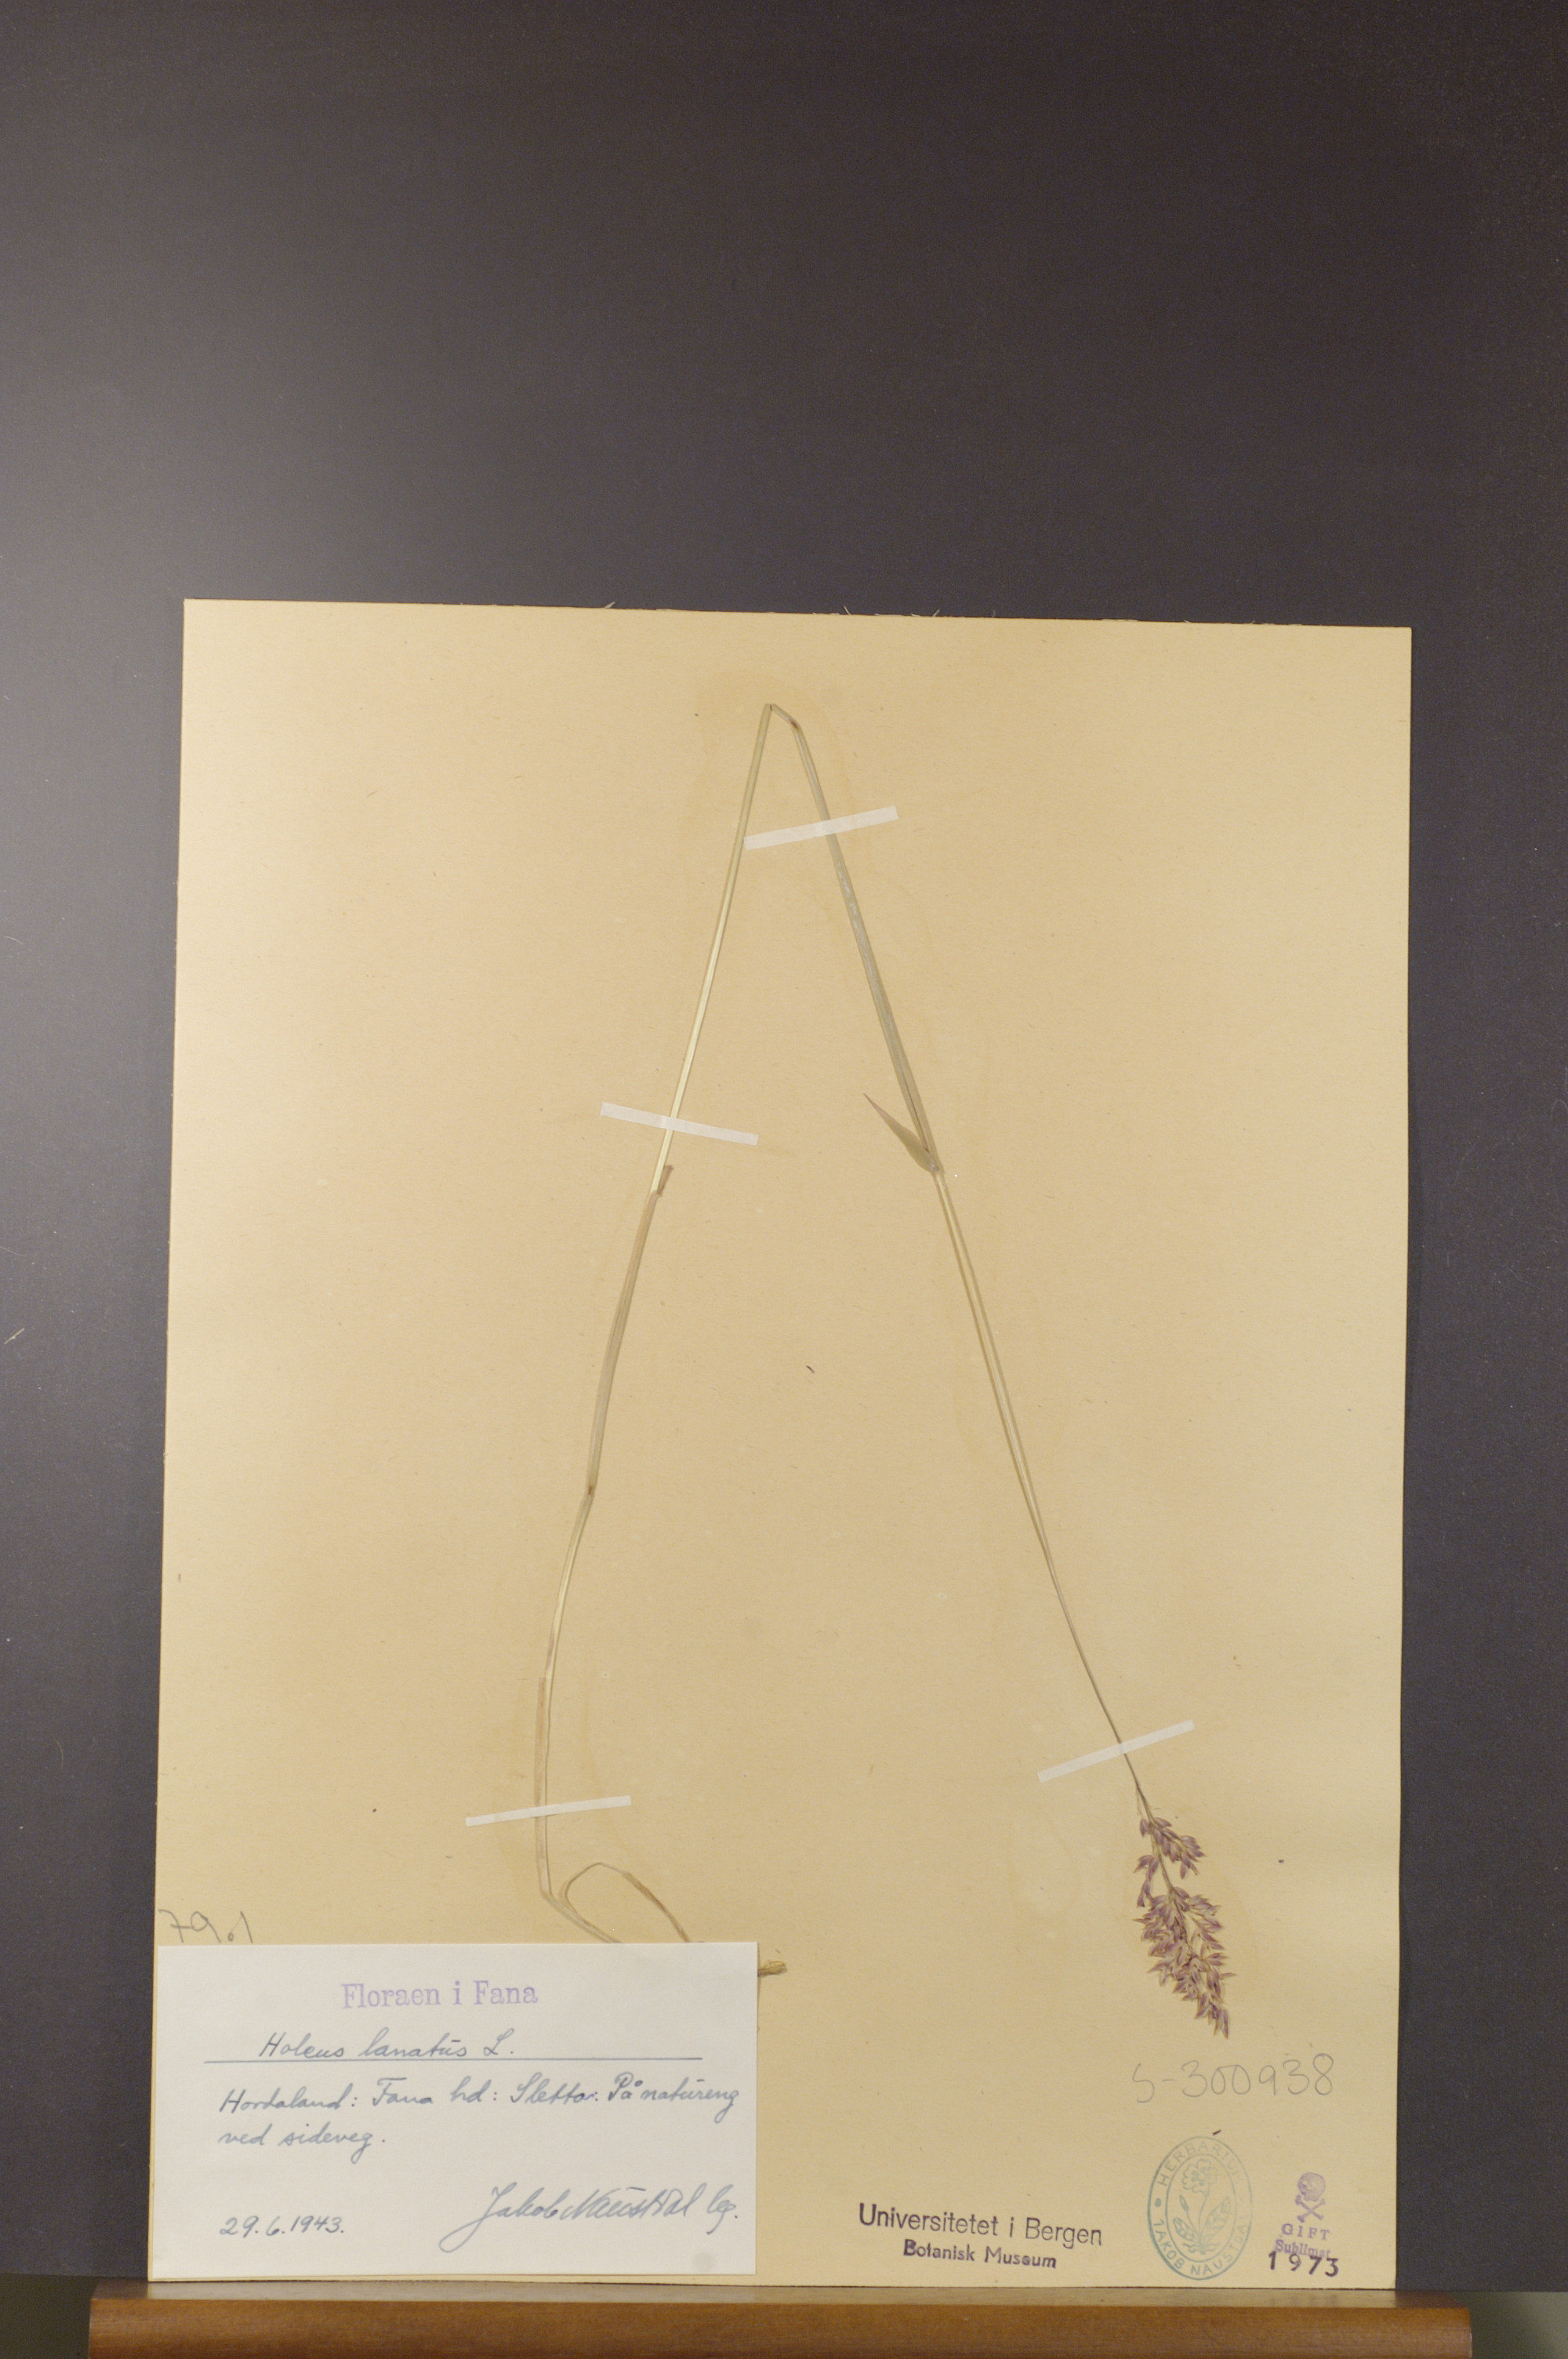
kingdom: Plantae
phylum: Tracheophyta
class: Liliopsida
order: Poales
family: Poaceae
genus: Holcus
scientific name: Holcus lanatus
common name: Yorkshire-fog
